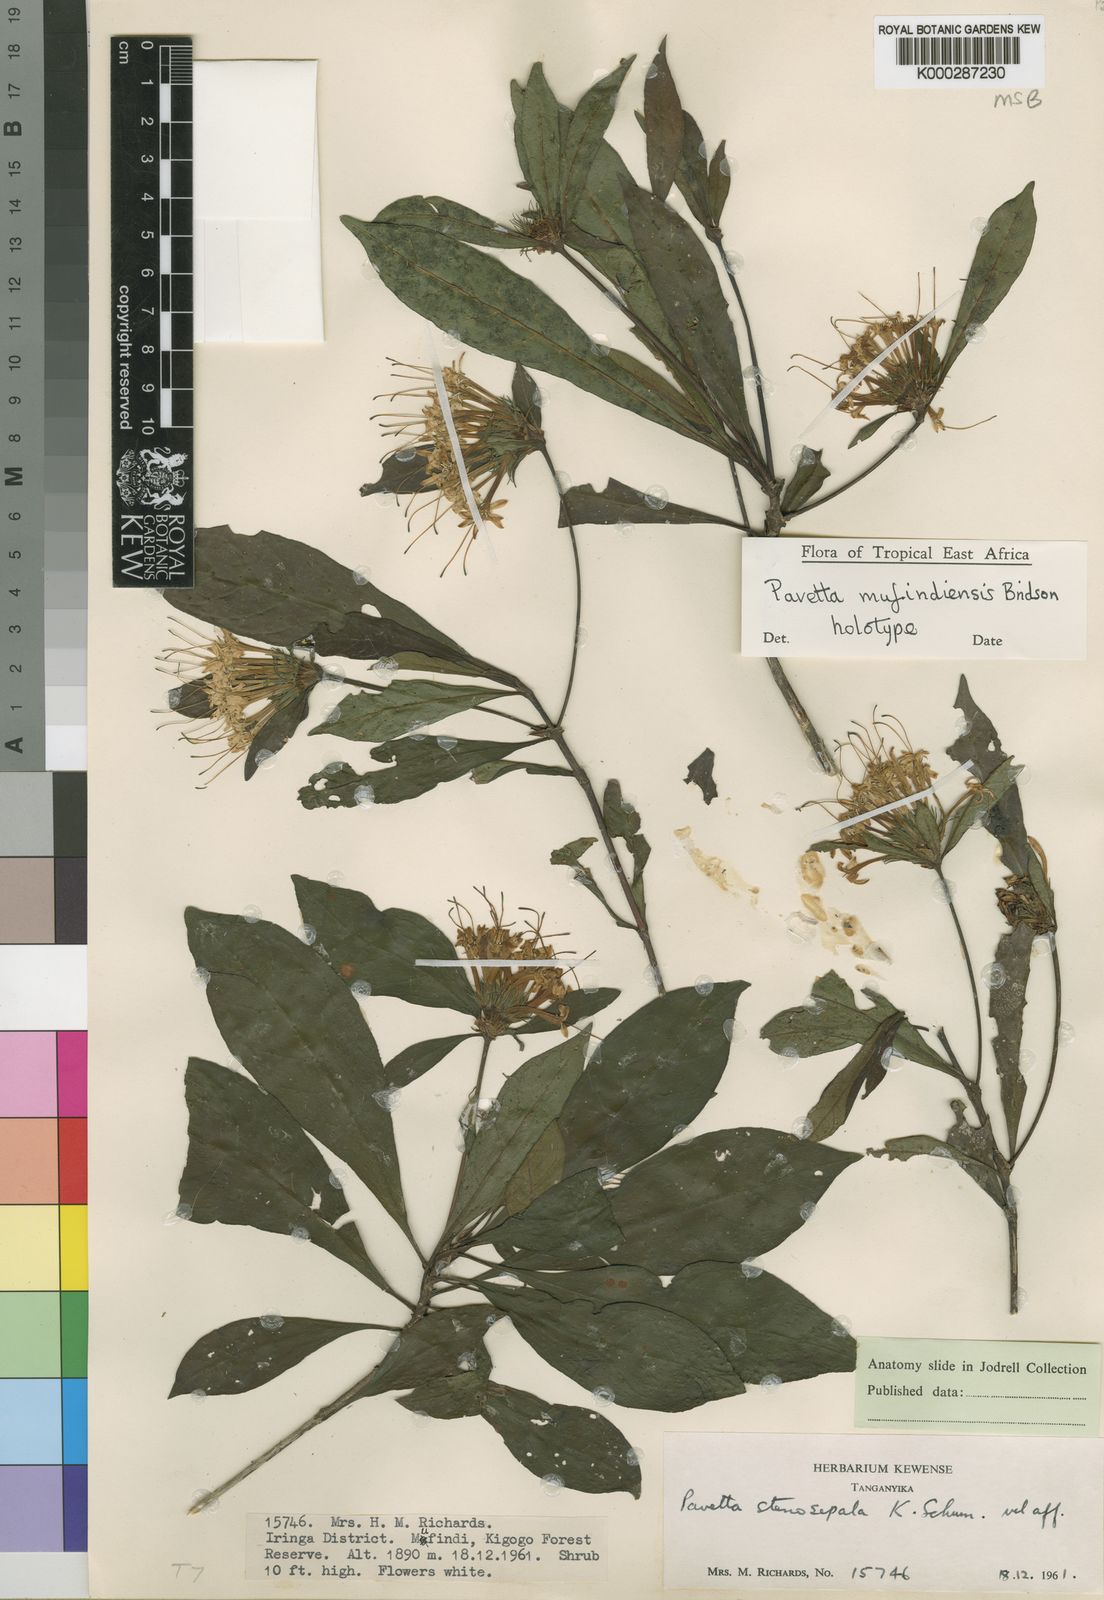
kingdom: Plantae
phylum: Tracheophyta
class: Magnoliopsida
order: Gentianales
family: Rubiaceae
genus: Pavetta
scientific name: Pavetta mufindiensis
